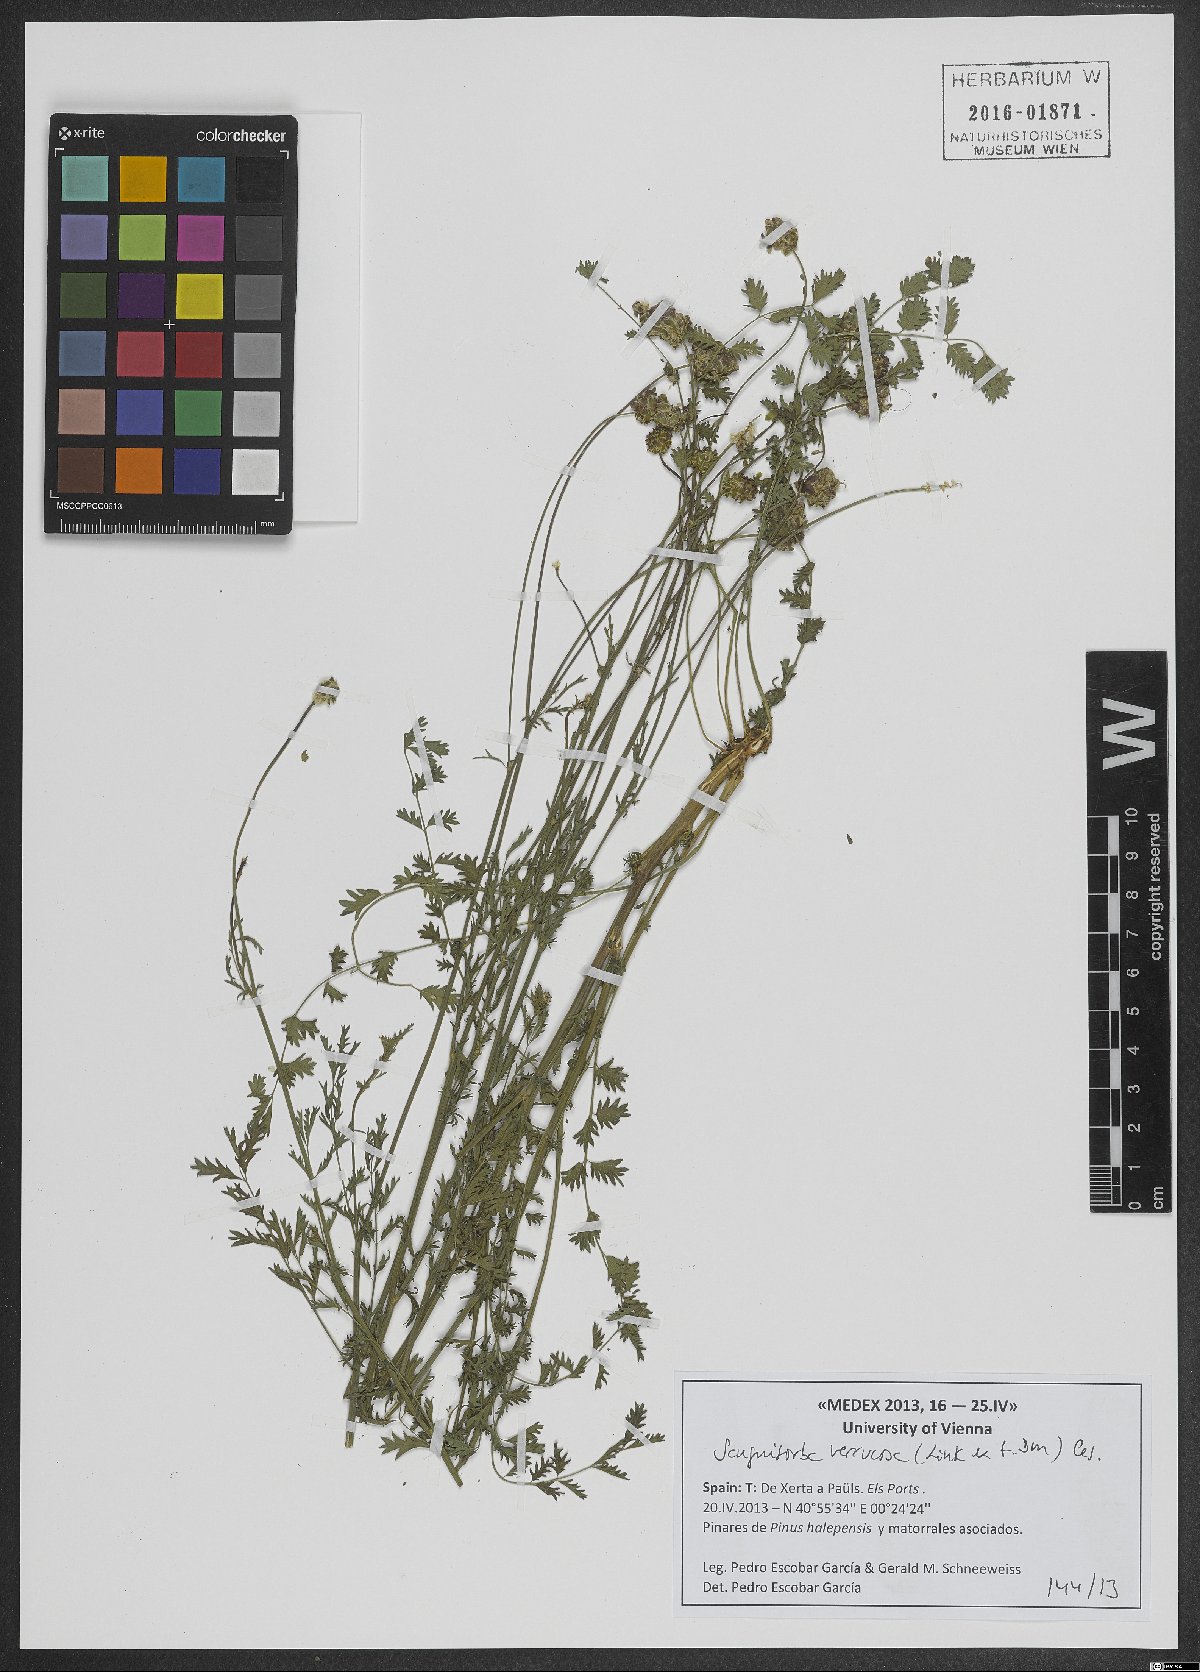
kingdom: Plantae
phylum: Tracheophyta
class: Magnoliopsida
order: Rosales
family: Rosaceae
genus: Poterium
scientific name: Poterium verrucosum
